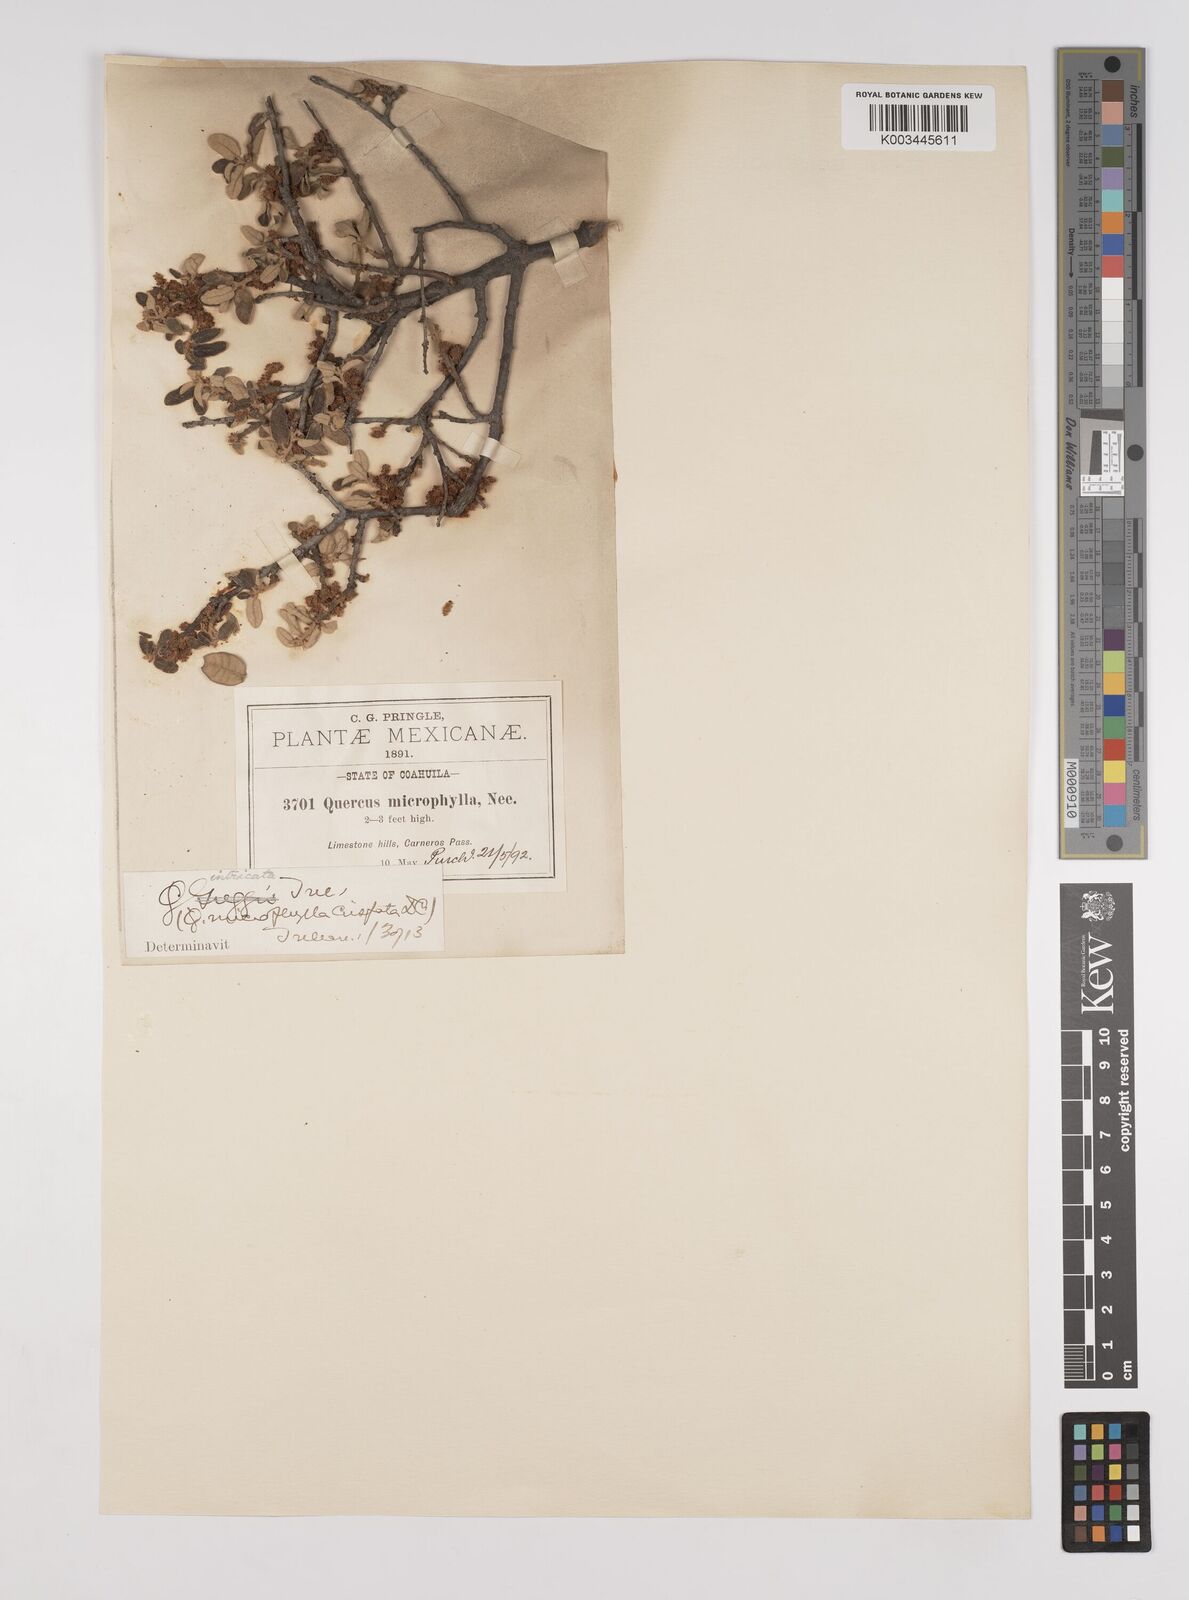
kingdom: Plantae
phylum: Tracheophyta
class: Magnoliopsida
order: Fagales
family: Fagaceae
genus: Quercus
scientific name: Quercus intricata
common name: Dwarf oak
